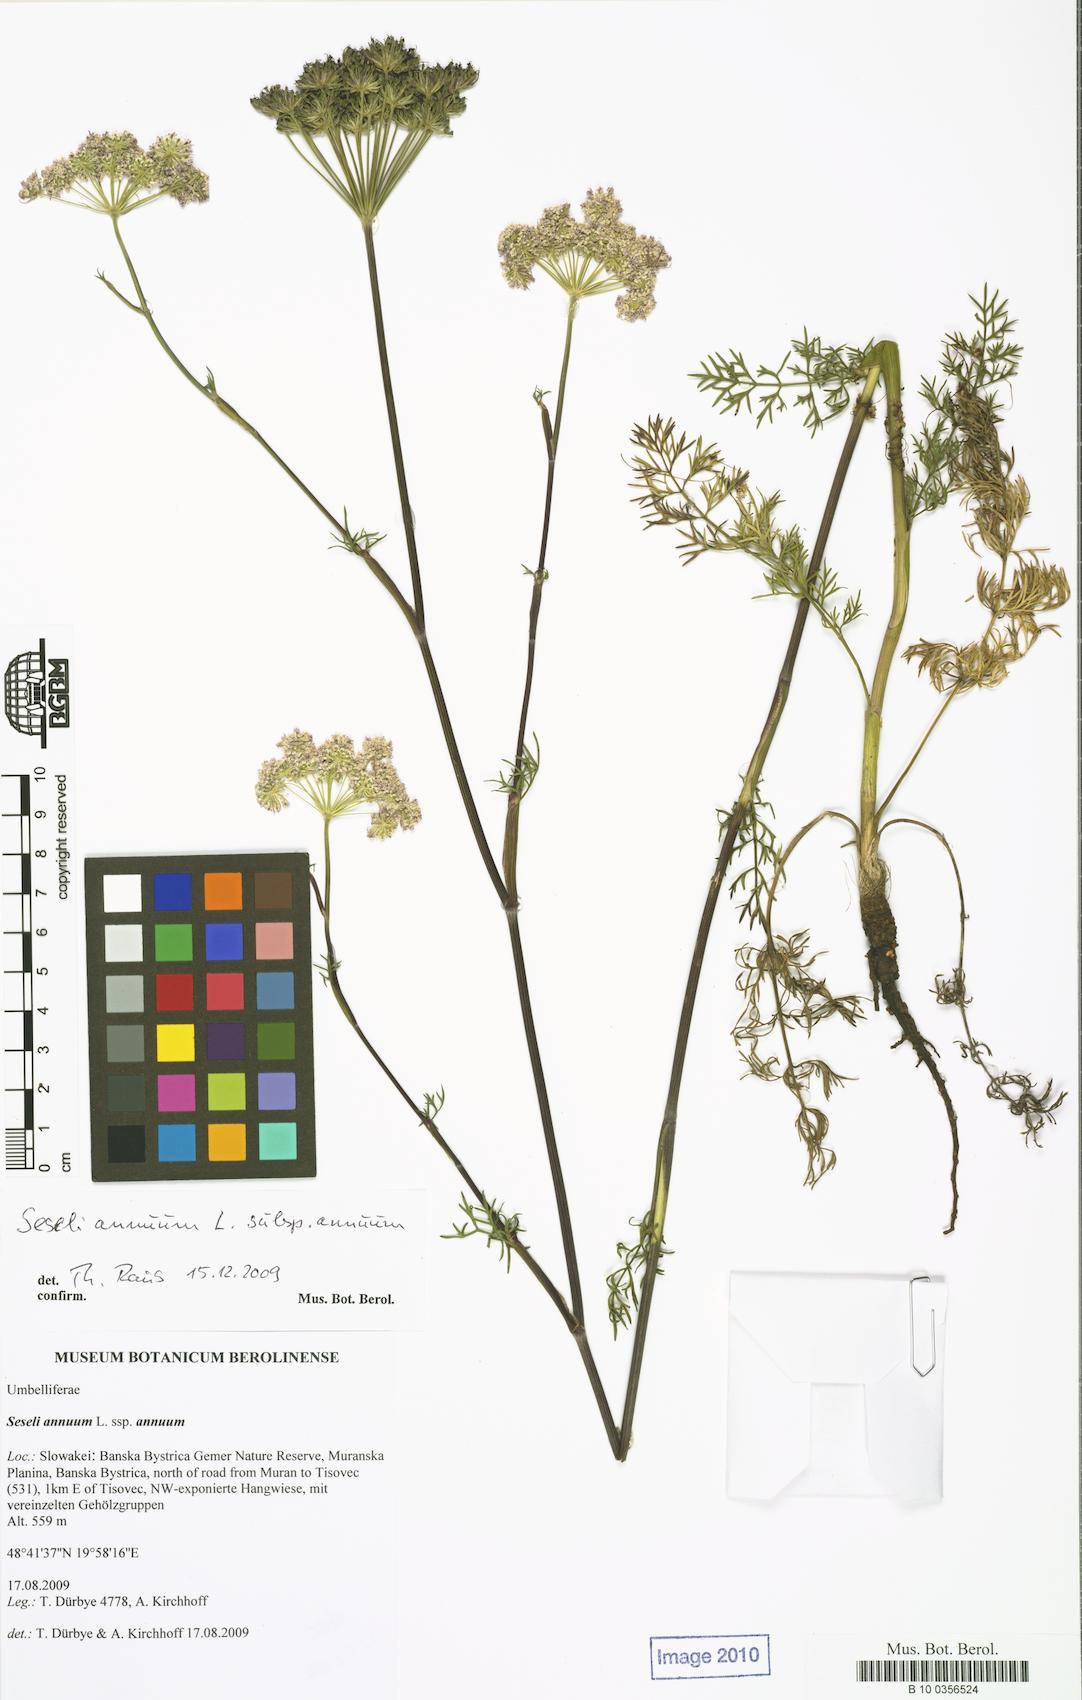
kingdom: Plantae
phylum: Tracheophyta
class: Magnoliopsida
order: Apiales
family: Apiaceae
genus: Seseli
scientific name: Seseli annuum
